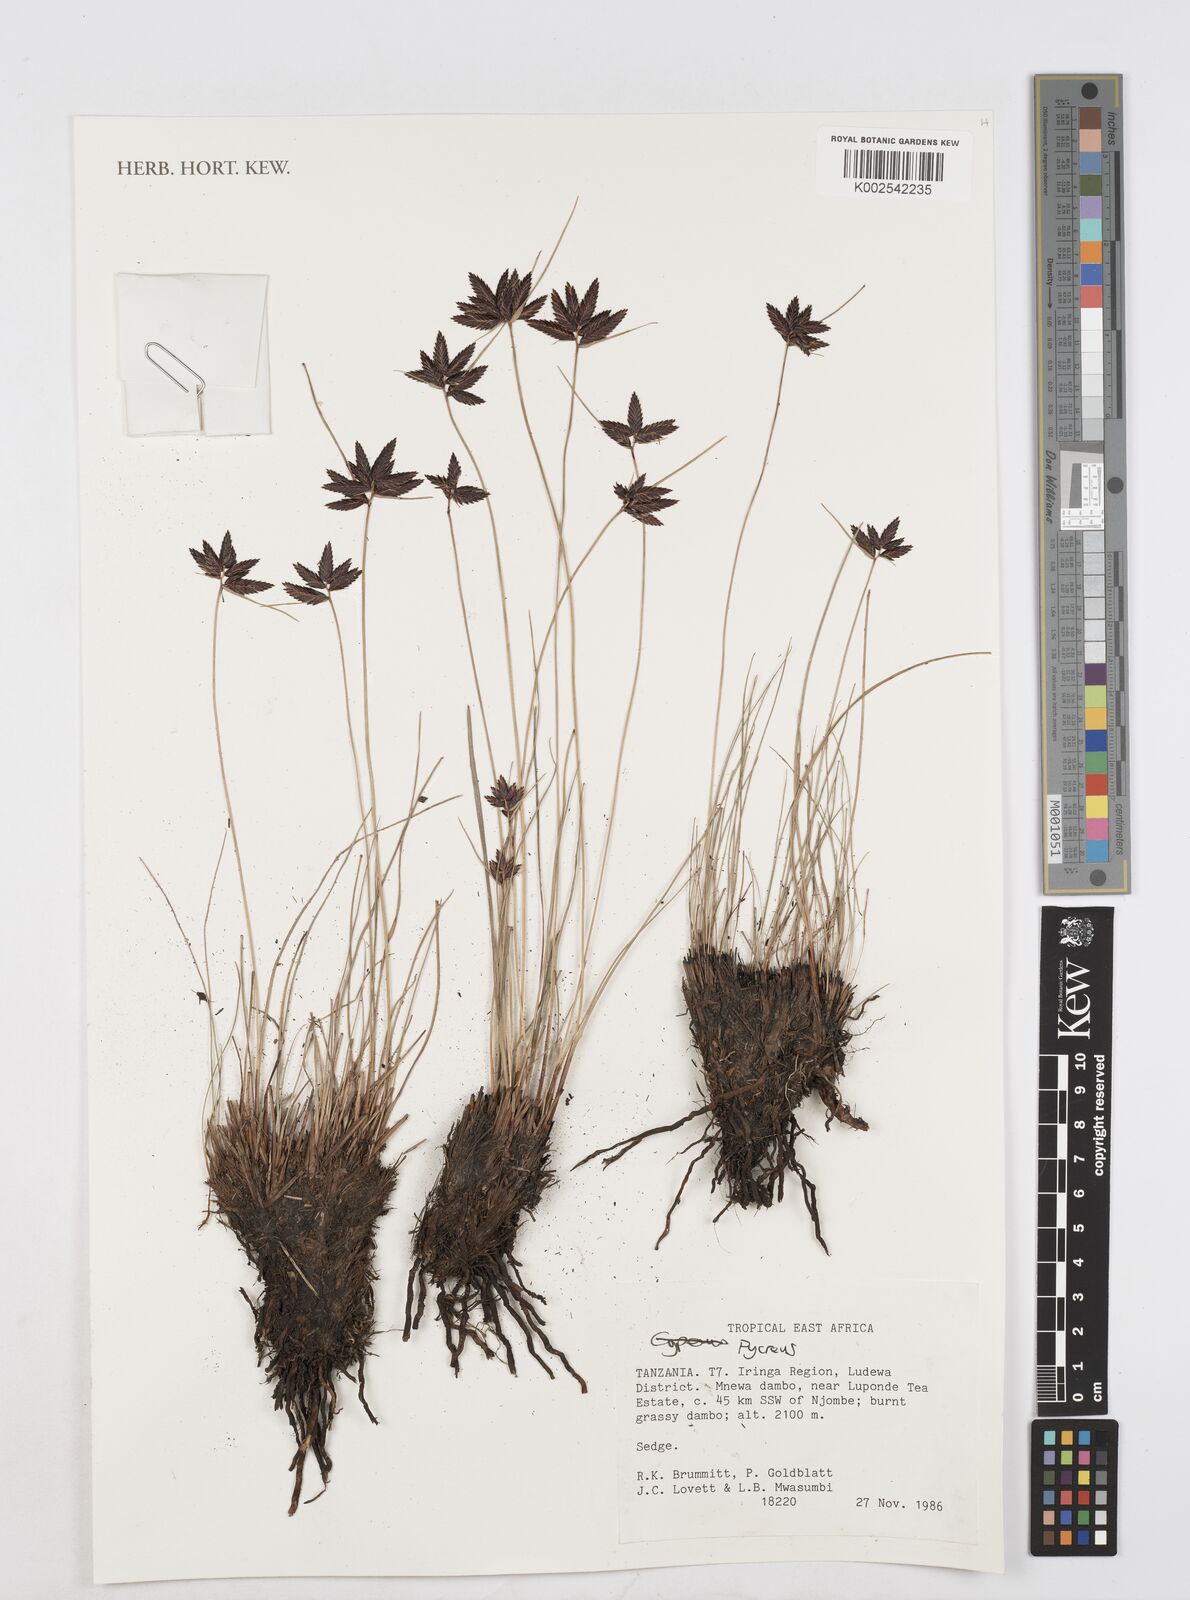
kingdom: Plantae
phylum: Tracheophyta
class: Liliopsida
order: Poales
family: Cyperaceae
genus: Cyperus
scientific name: Cyperus
